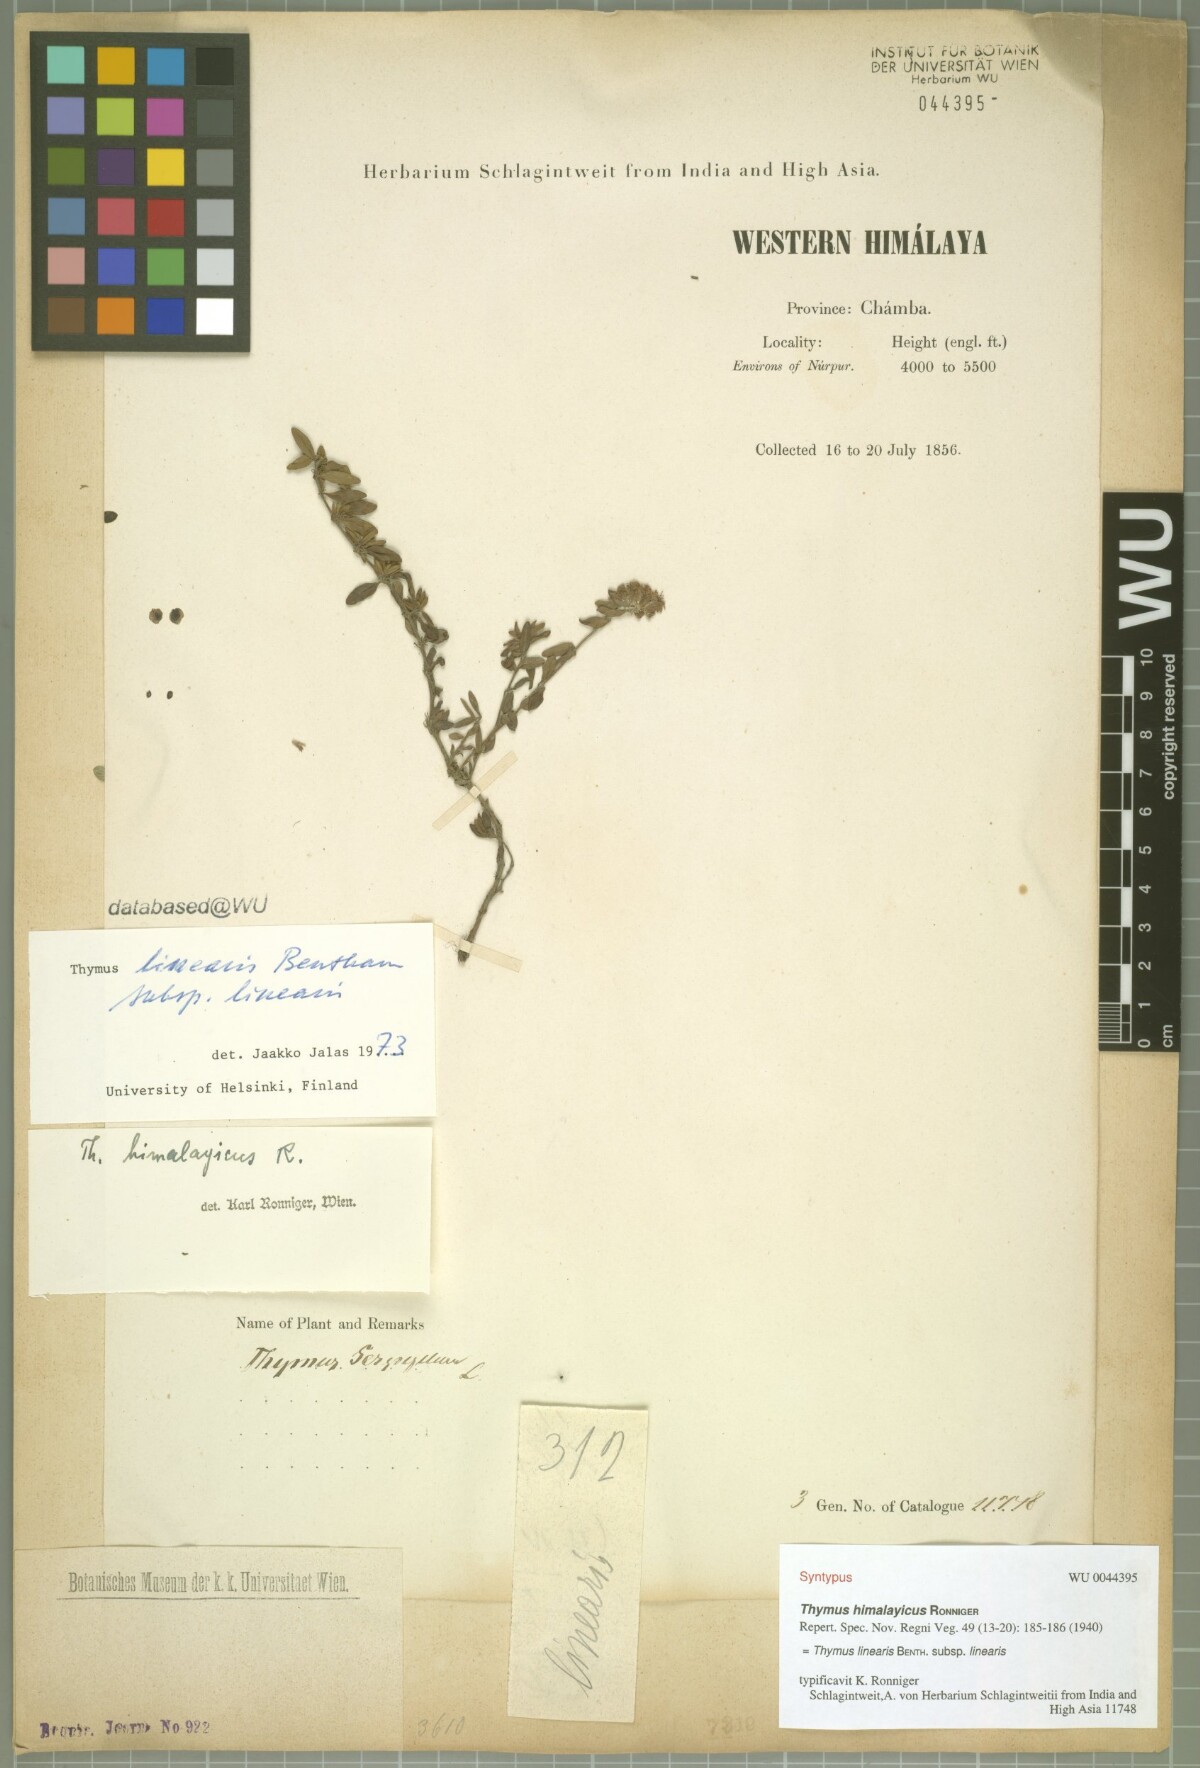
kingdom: Plantae
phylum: Tracheophyta
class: Magnoliopsida
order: Lamiales
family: Lamiaceae
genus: Thymus
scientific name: Thymus linearis
